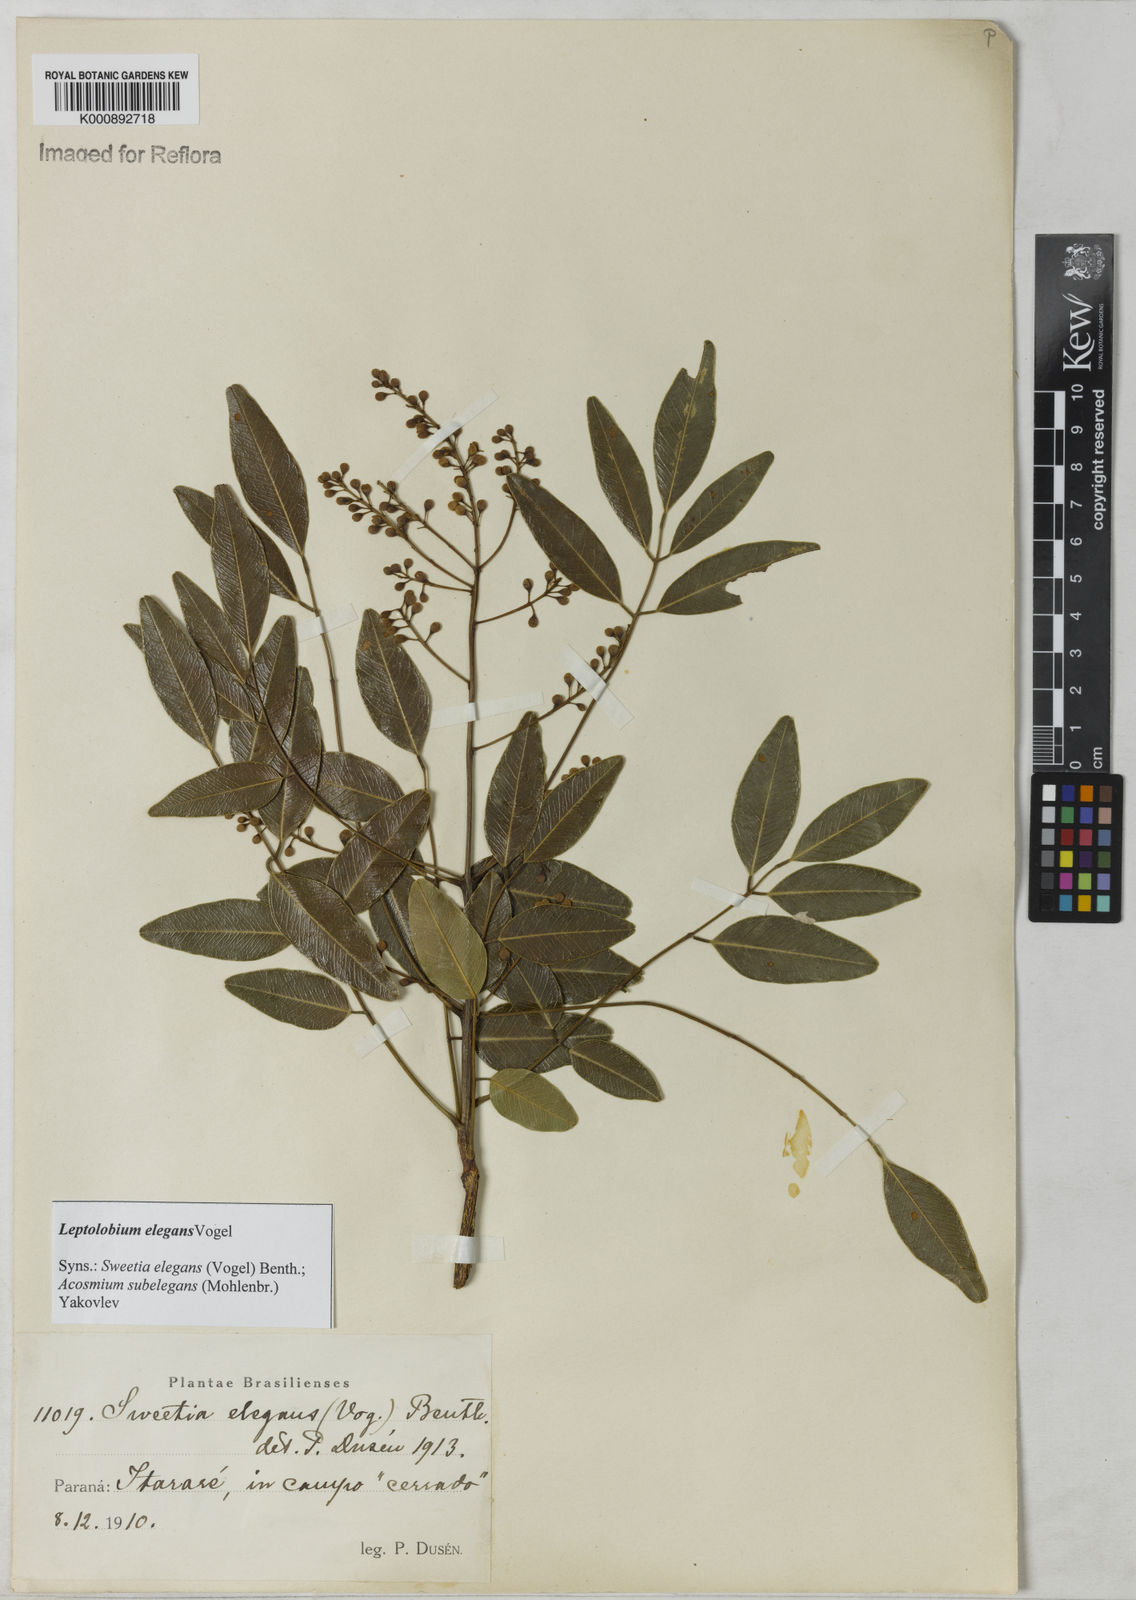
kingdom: Plantae
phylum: Tracheophyta
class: Magnoliopsida
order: Fabales
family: Fabaceae
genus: Leptolobium
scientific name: Leptolobium elegans
